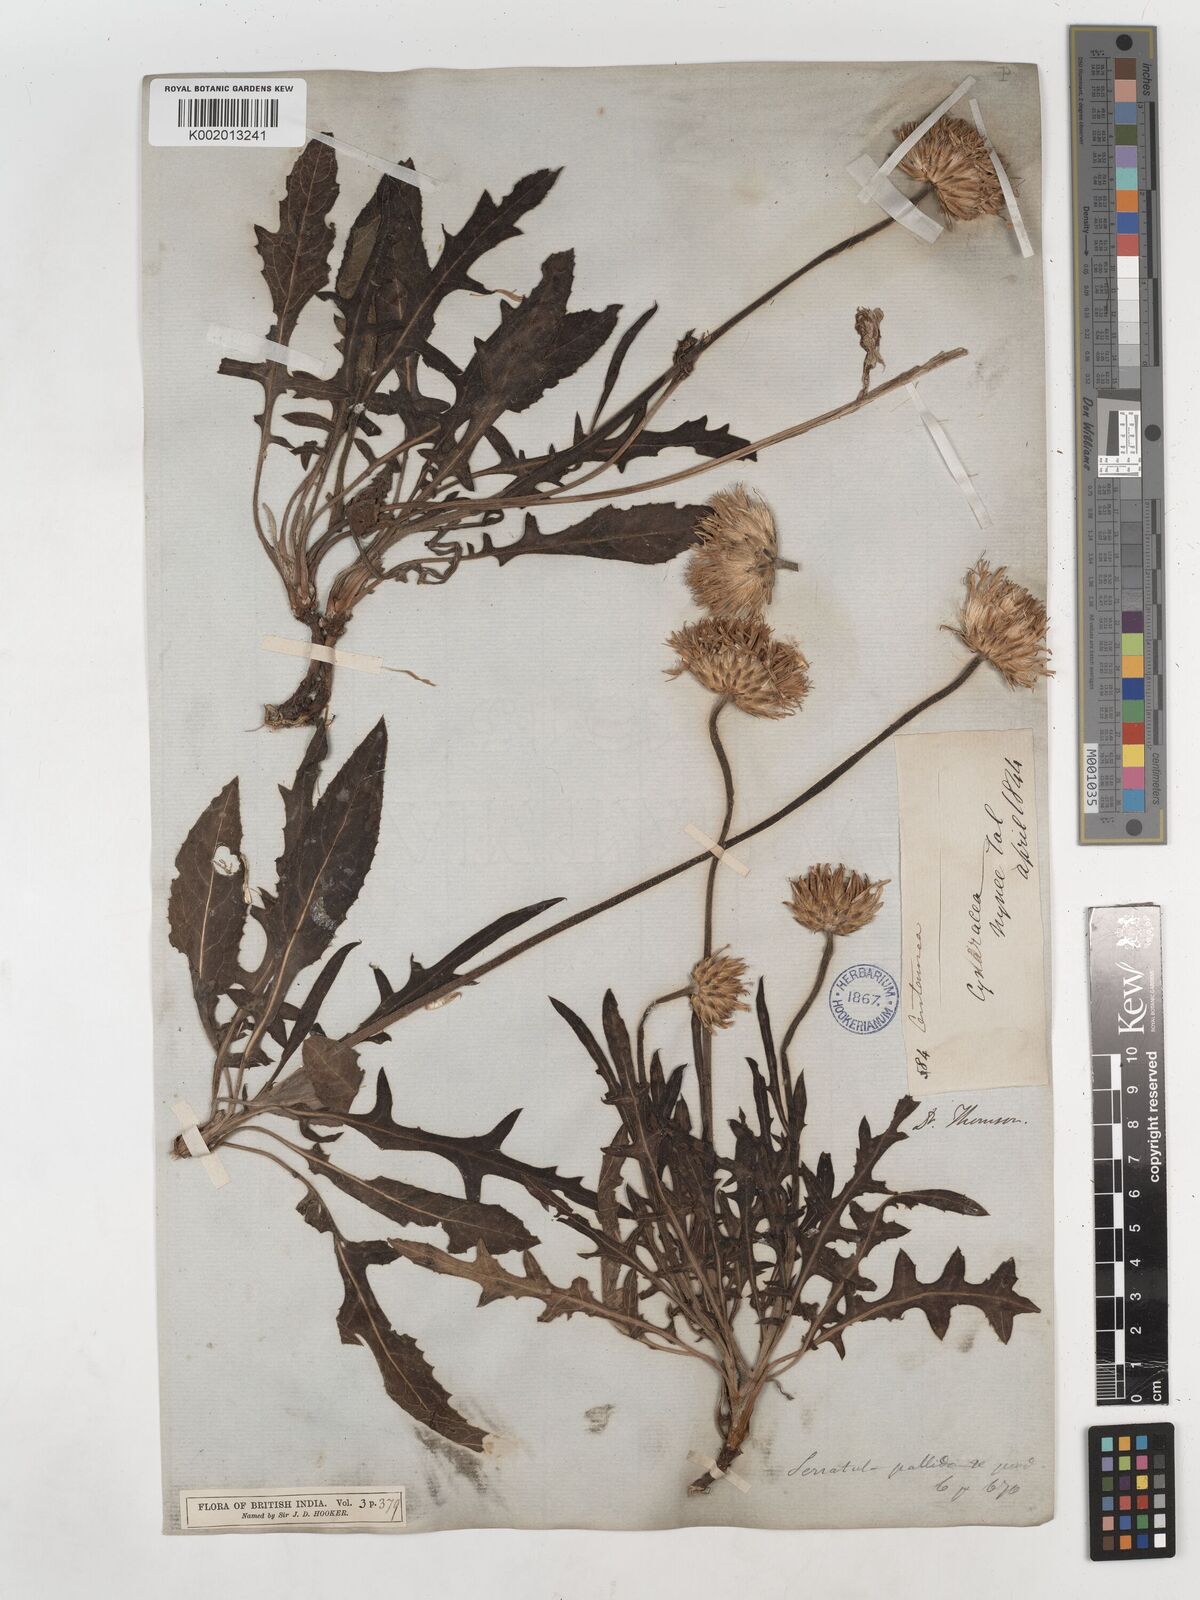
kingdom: Plantae
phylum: Tracheophyta
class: Magnoliopsida
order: Asterales
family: Asteraceae
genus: Klasea
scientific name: Klasea pallida
